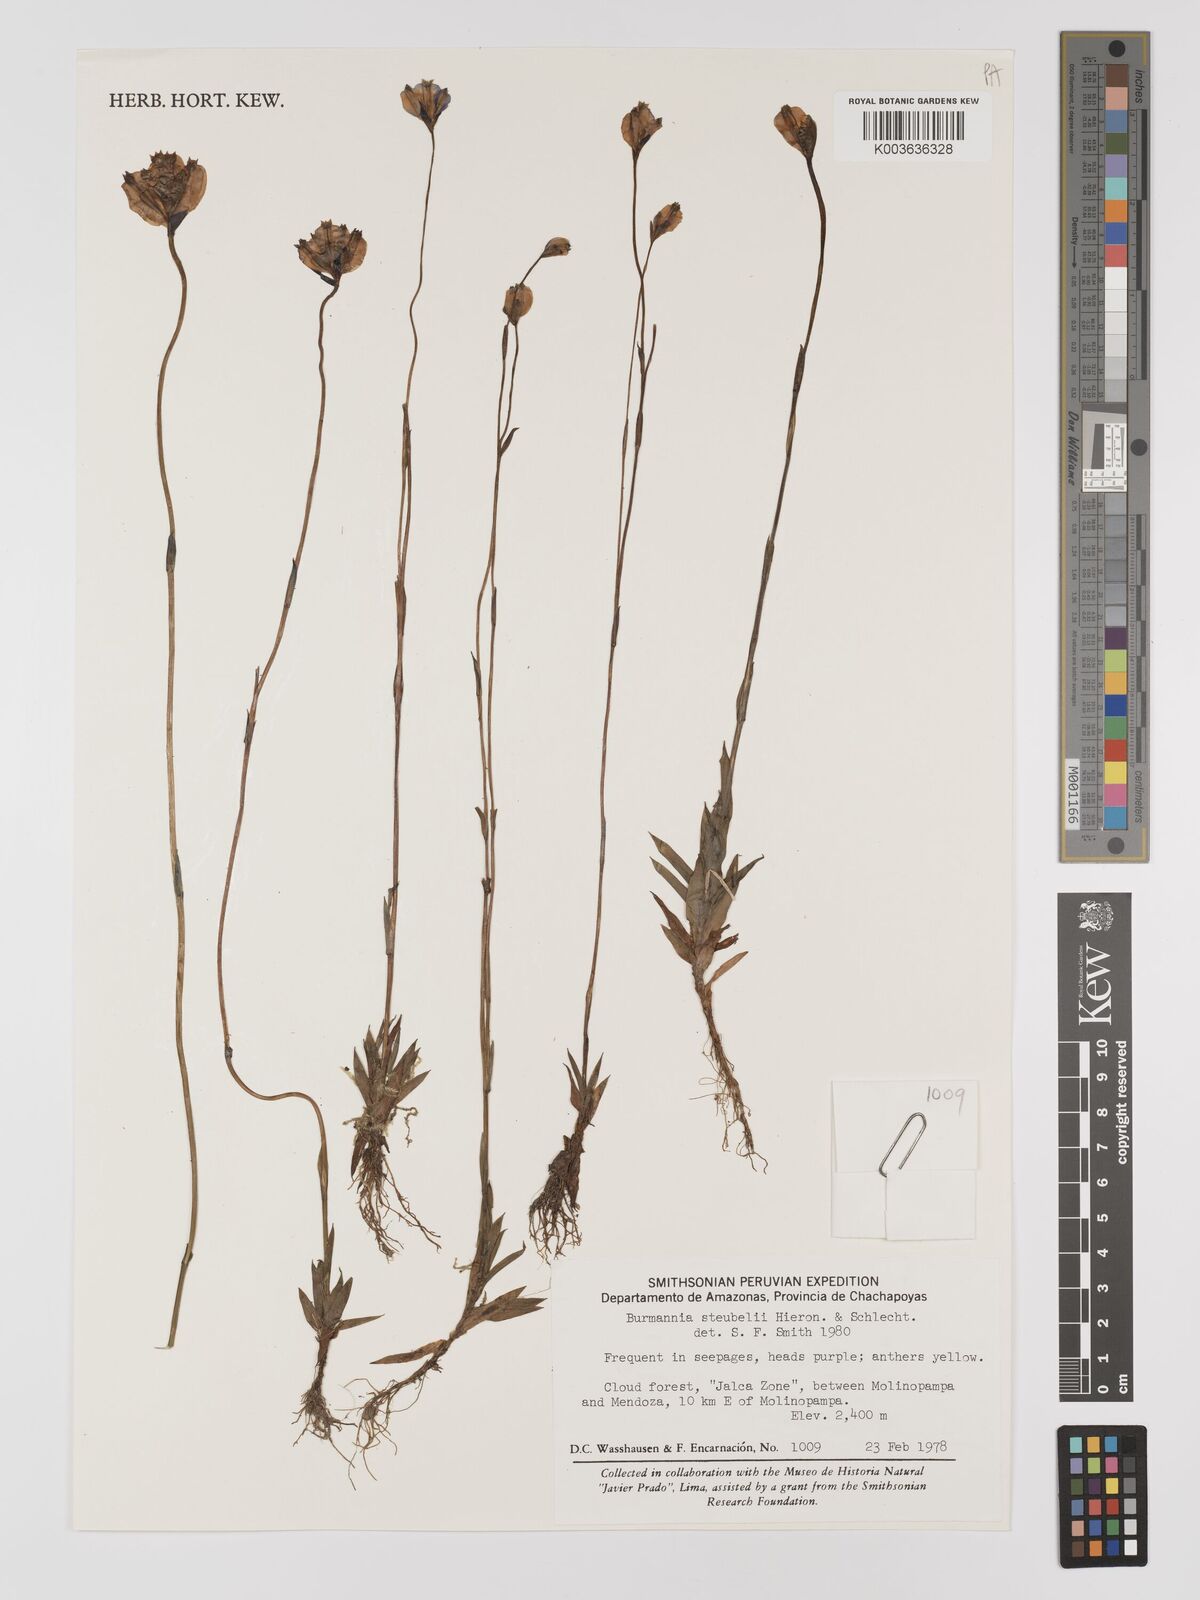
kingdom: Plantae
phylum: Tracheophyta
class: Liliopsida
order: Dioscoreales
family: Burmanniaceae
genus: Burmannia
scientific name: Burmannia stuebelii
